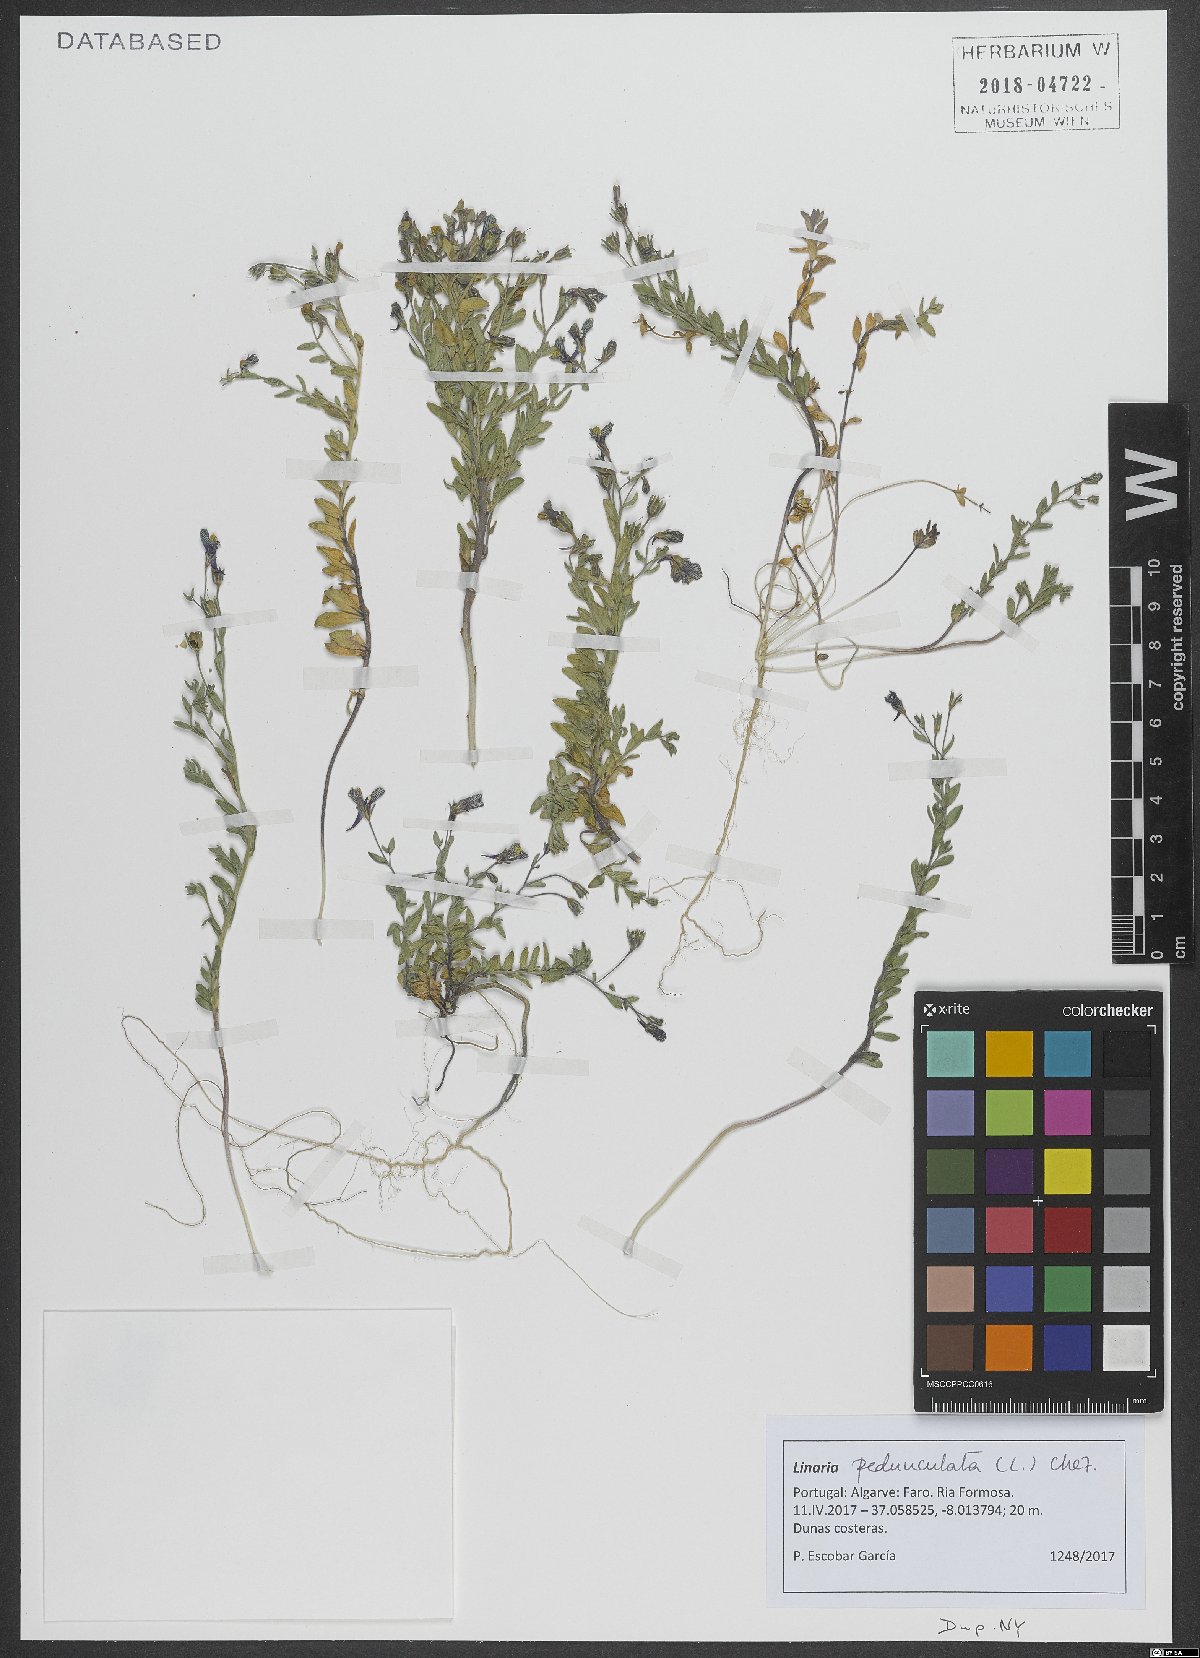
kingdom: Plantae
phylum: Tracheophyta
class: Magnoliopsida
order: Lamiales
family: Plantaginaceae
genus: Linaria
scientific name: Linaria pedunculata
